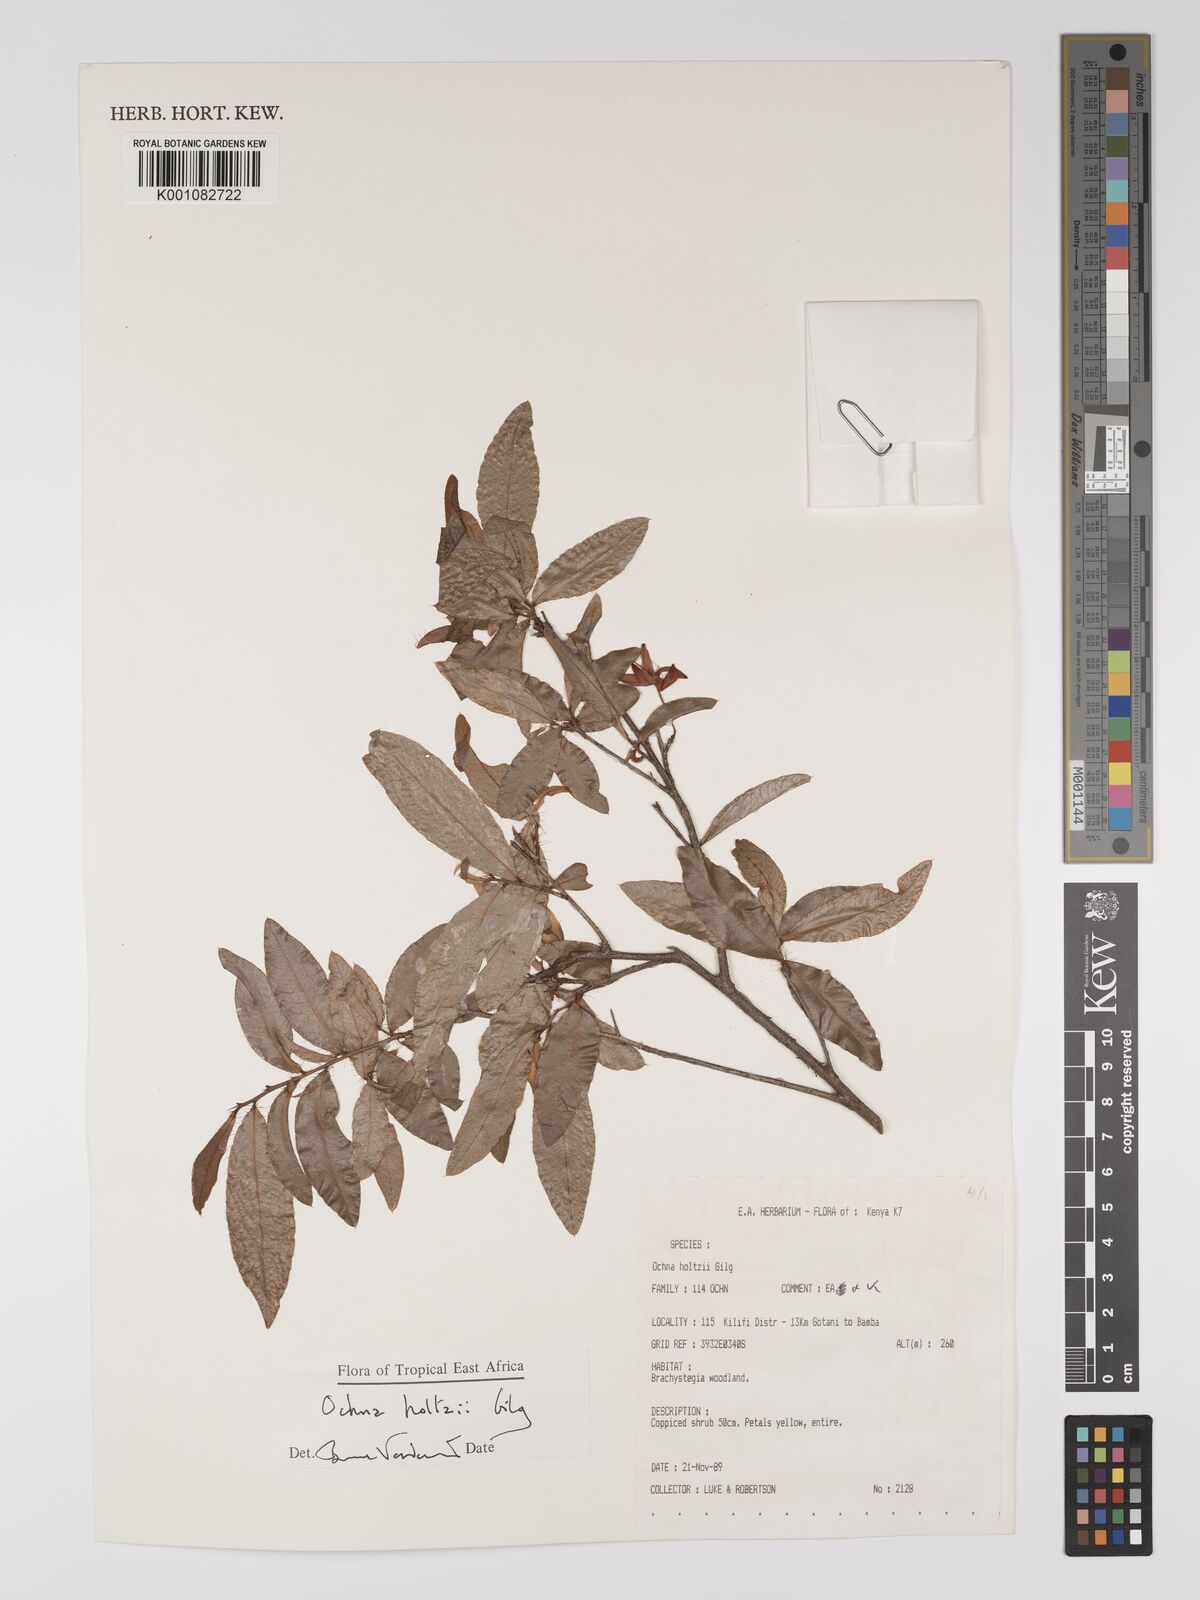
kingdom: Plantae
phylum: Tracheophyta
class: Magnoliopsida
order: Malpighiales
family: Ochnaceae
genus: Ochna
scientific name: Ochna holtzii
